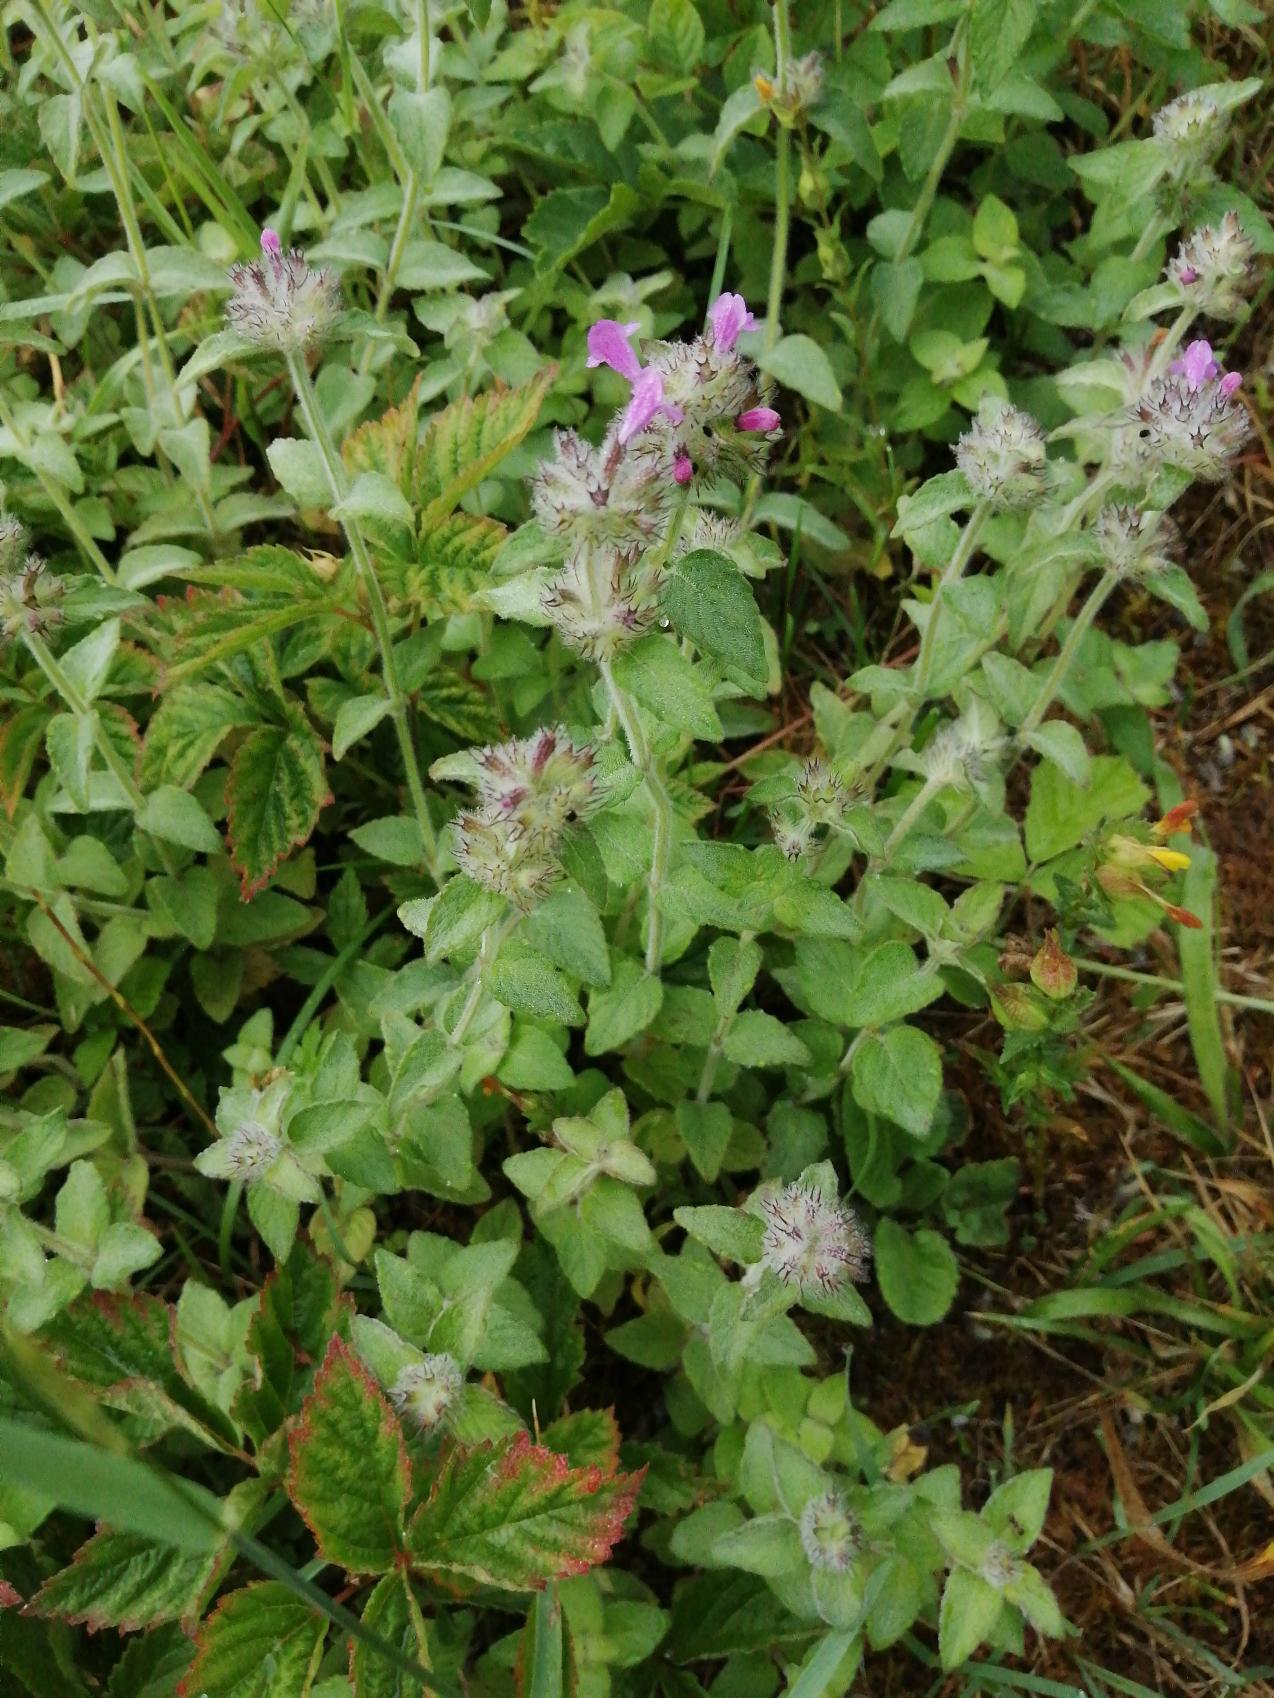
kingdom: Plantae
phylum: Tracheophyta
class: Magnoliopsida
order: Lamiales
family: Lamiaceae
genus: Clinopodium
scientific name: Clinopodium vulgare
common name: Kransbørste
